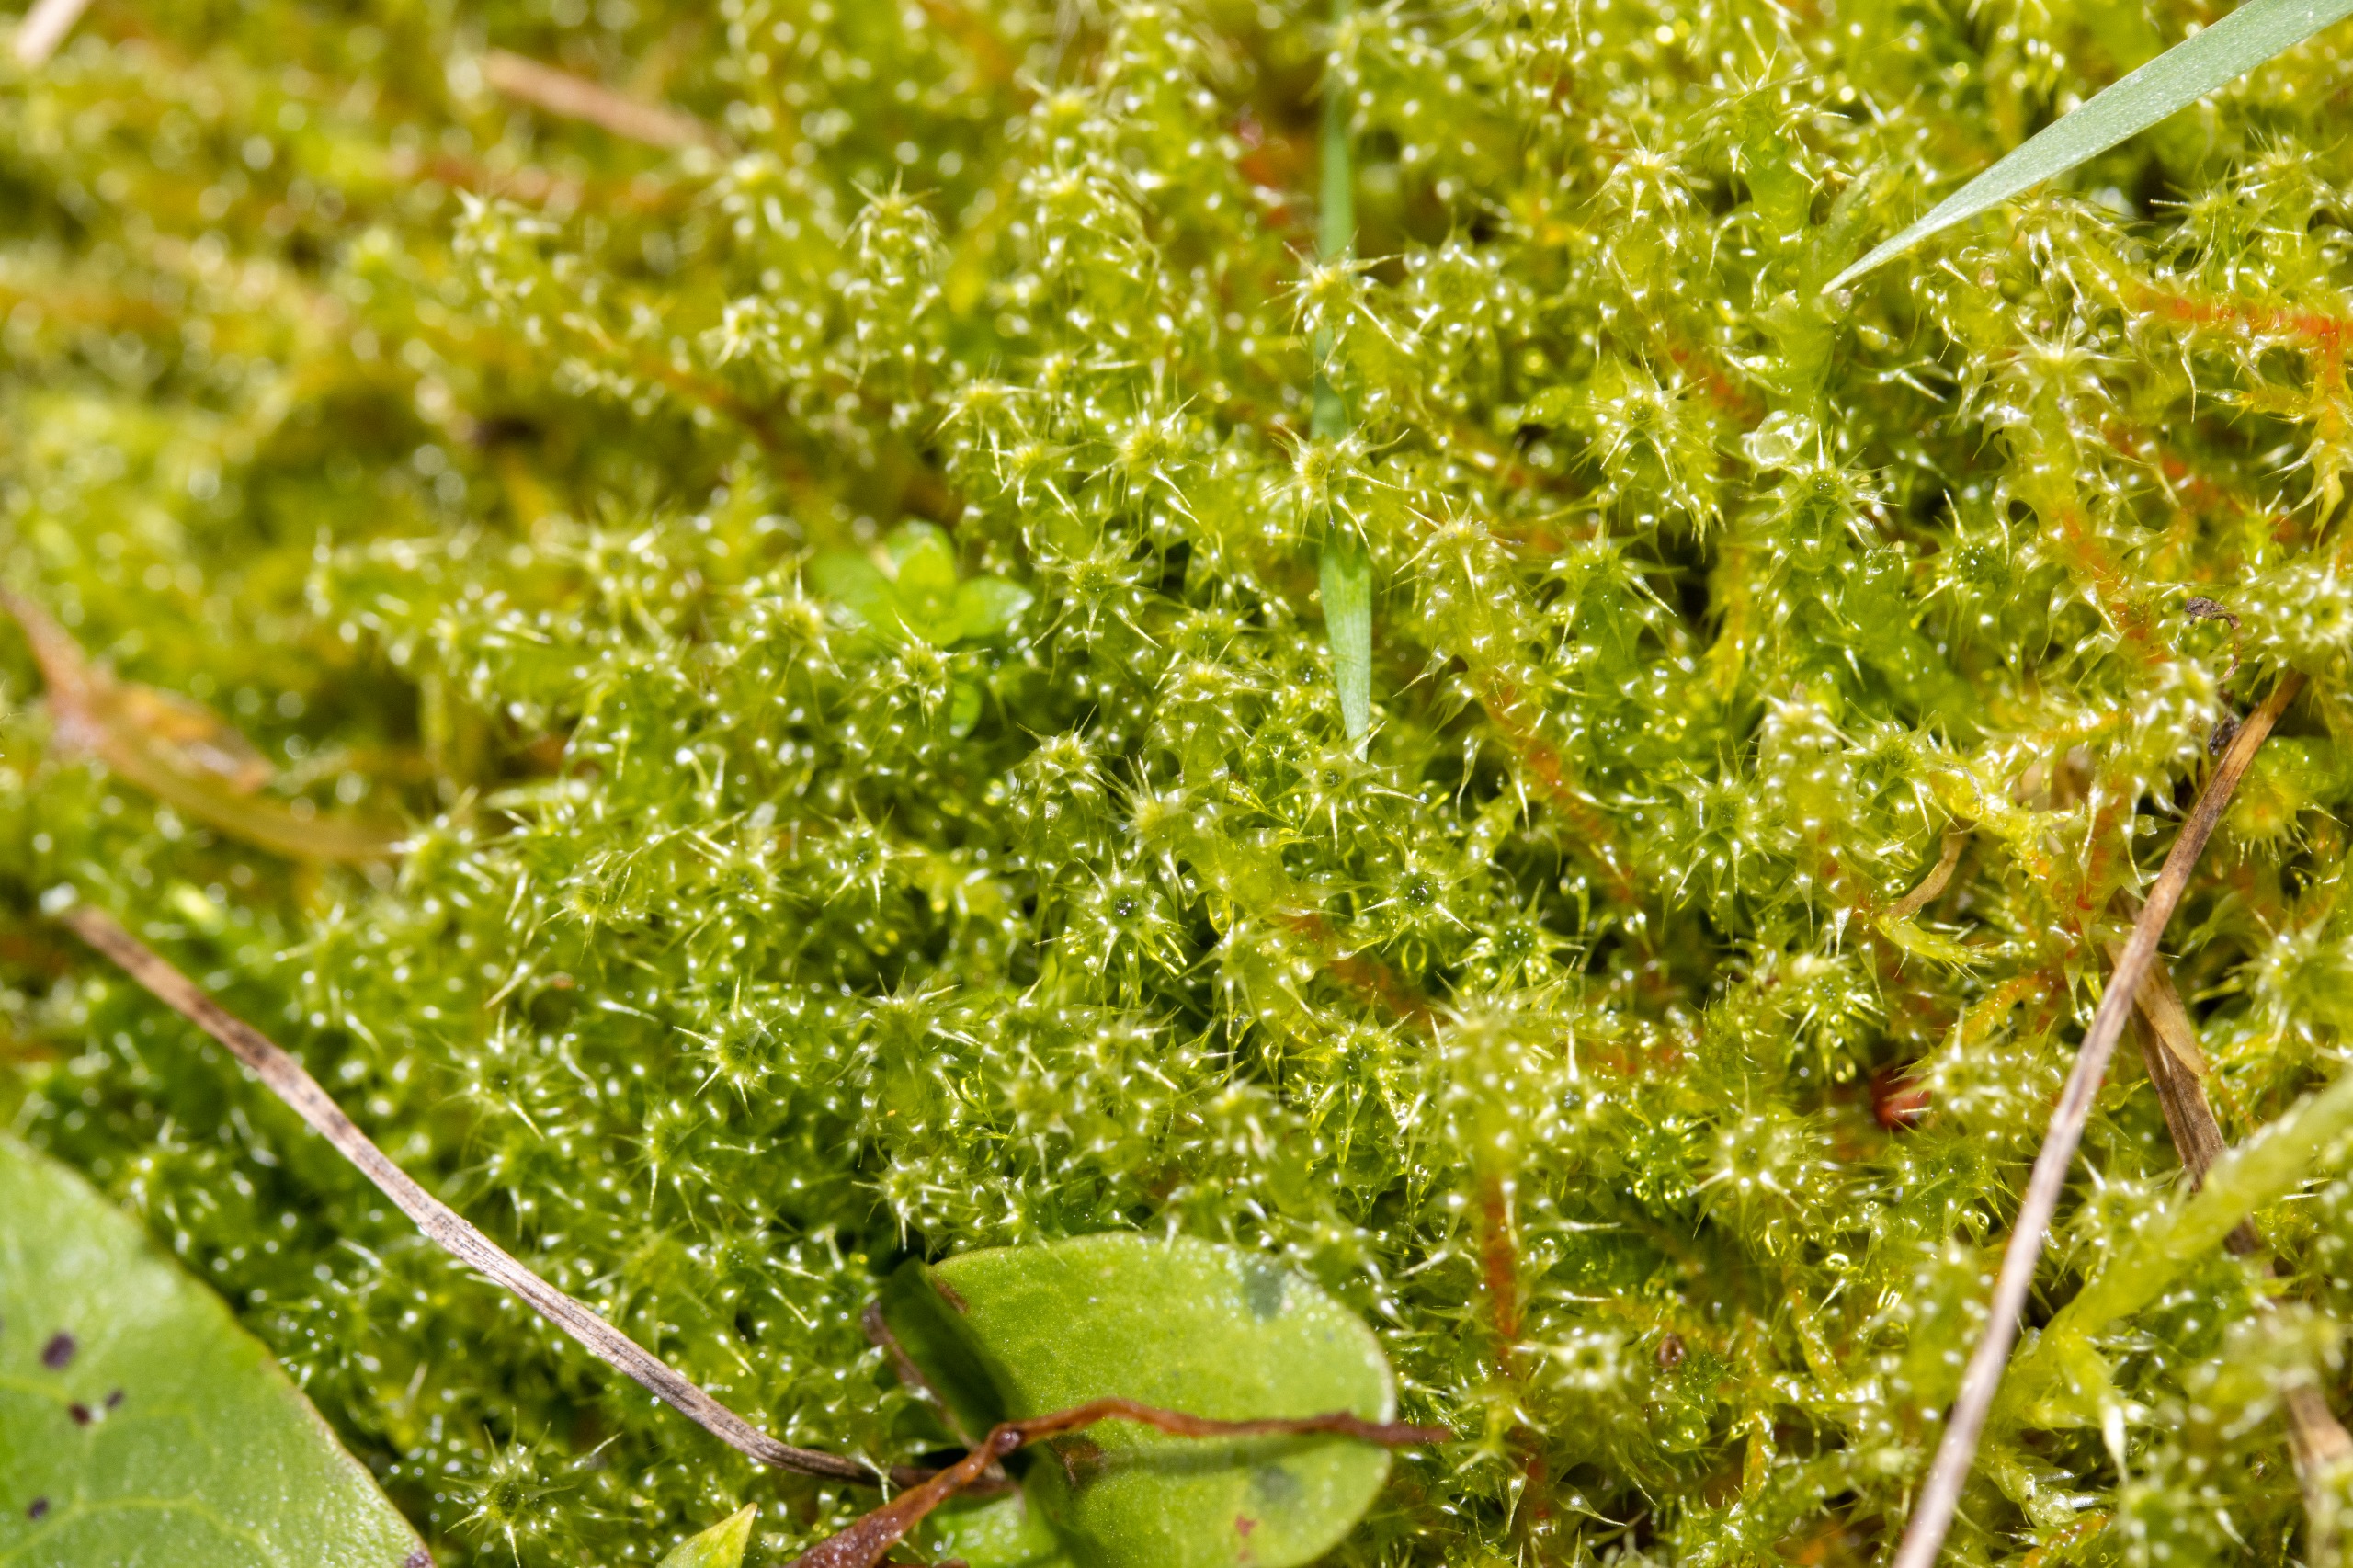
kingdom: Plantae
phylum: Bryophyta
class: Bryopsida
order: Hypnales
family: Hylocomiaceae
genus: Rhytidiadelphus
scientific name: Rhytidiadelphus squarrosus
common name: Plæne-kransemos
